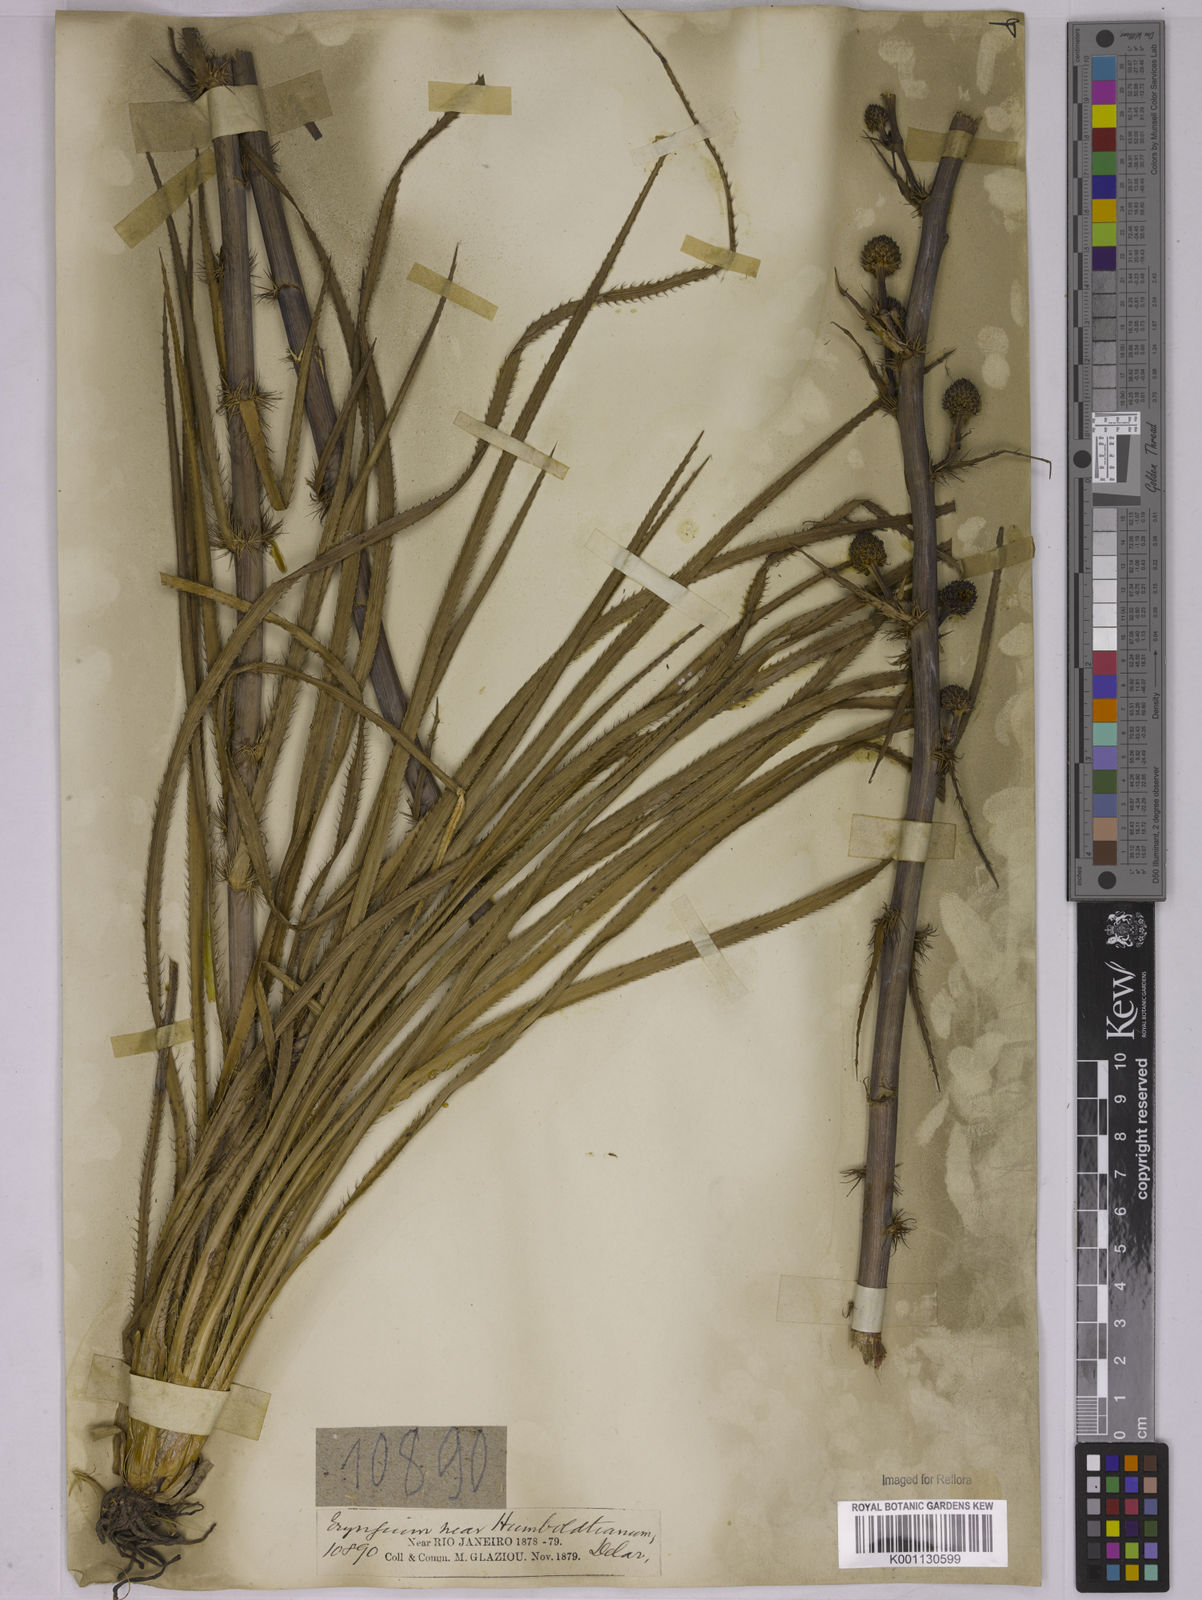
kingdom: Plantae
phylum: Tracheophyta
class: Magnoliopsida
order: Apiales
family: Apiaceae
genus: Eryngium
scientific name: Eryngium canaliculatum
